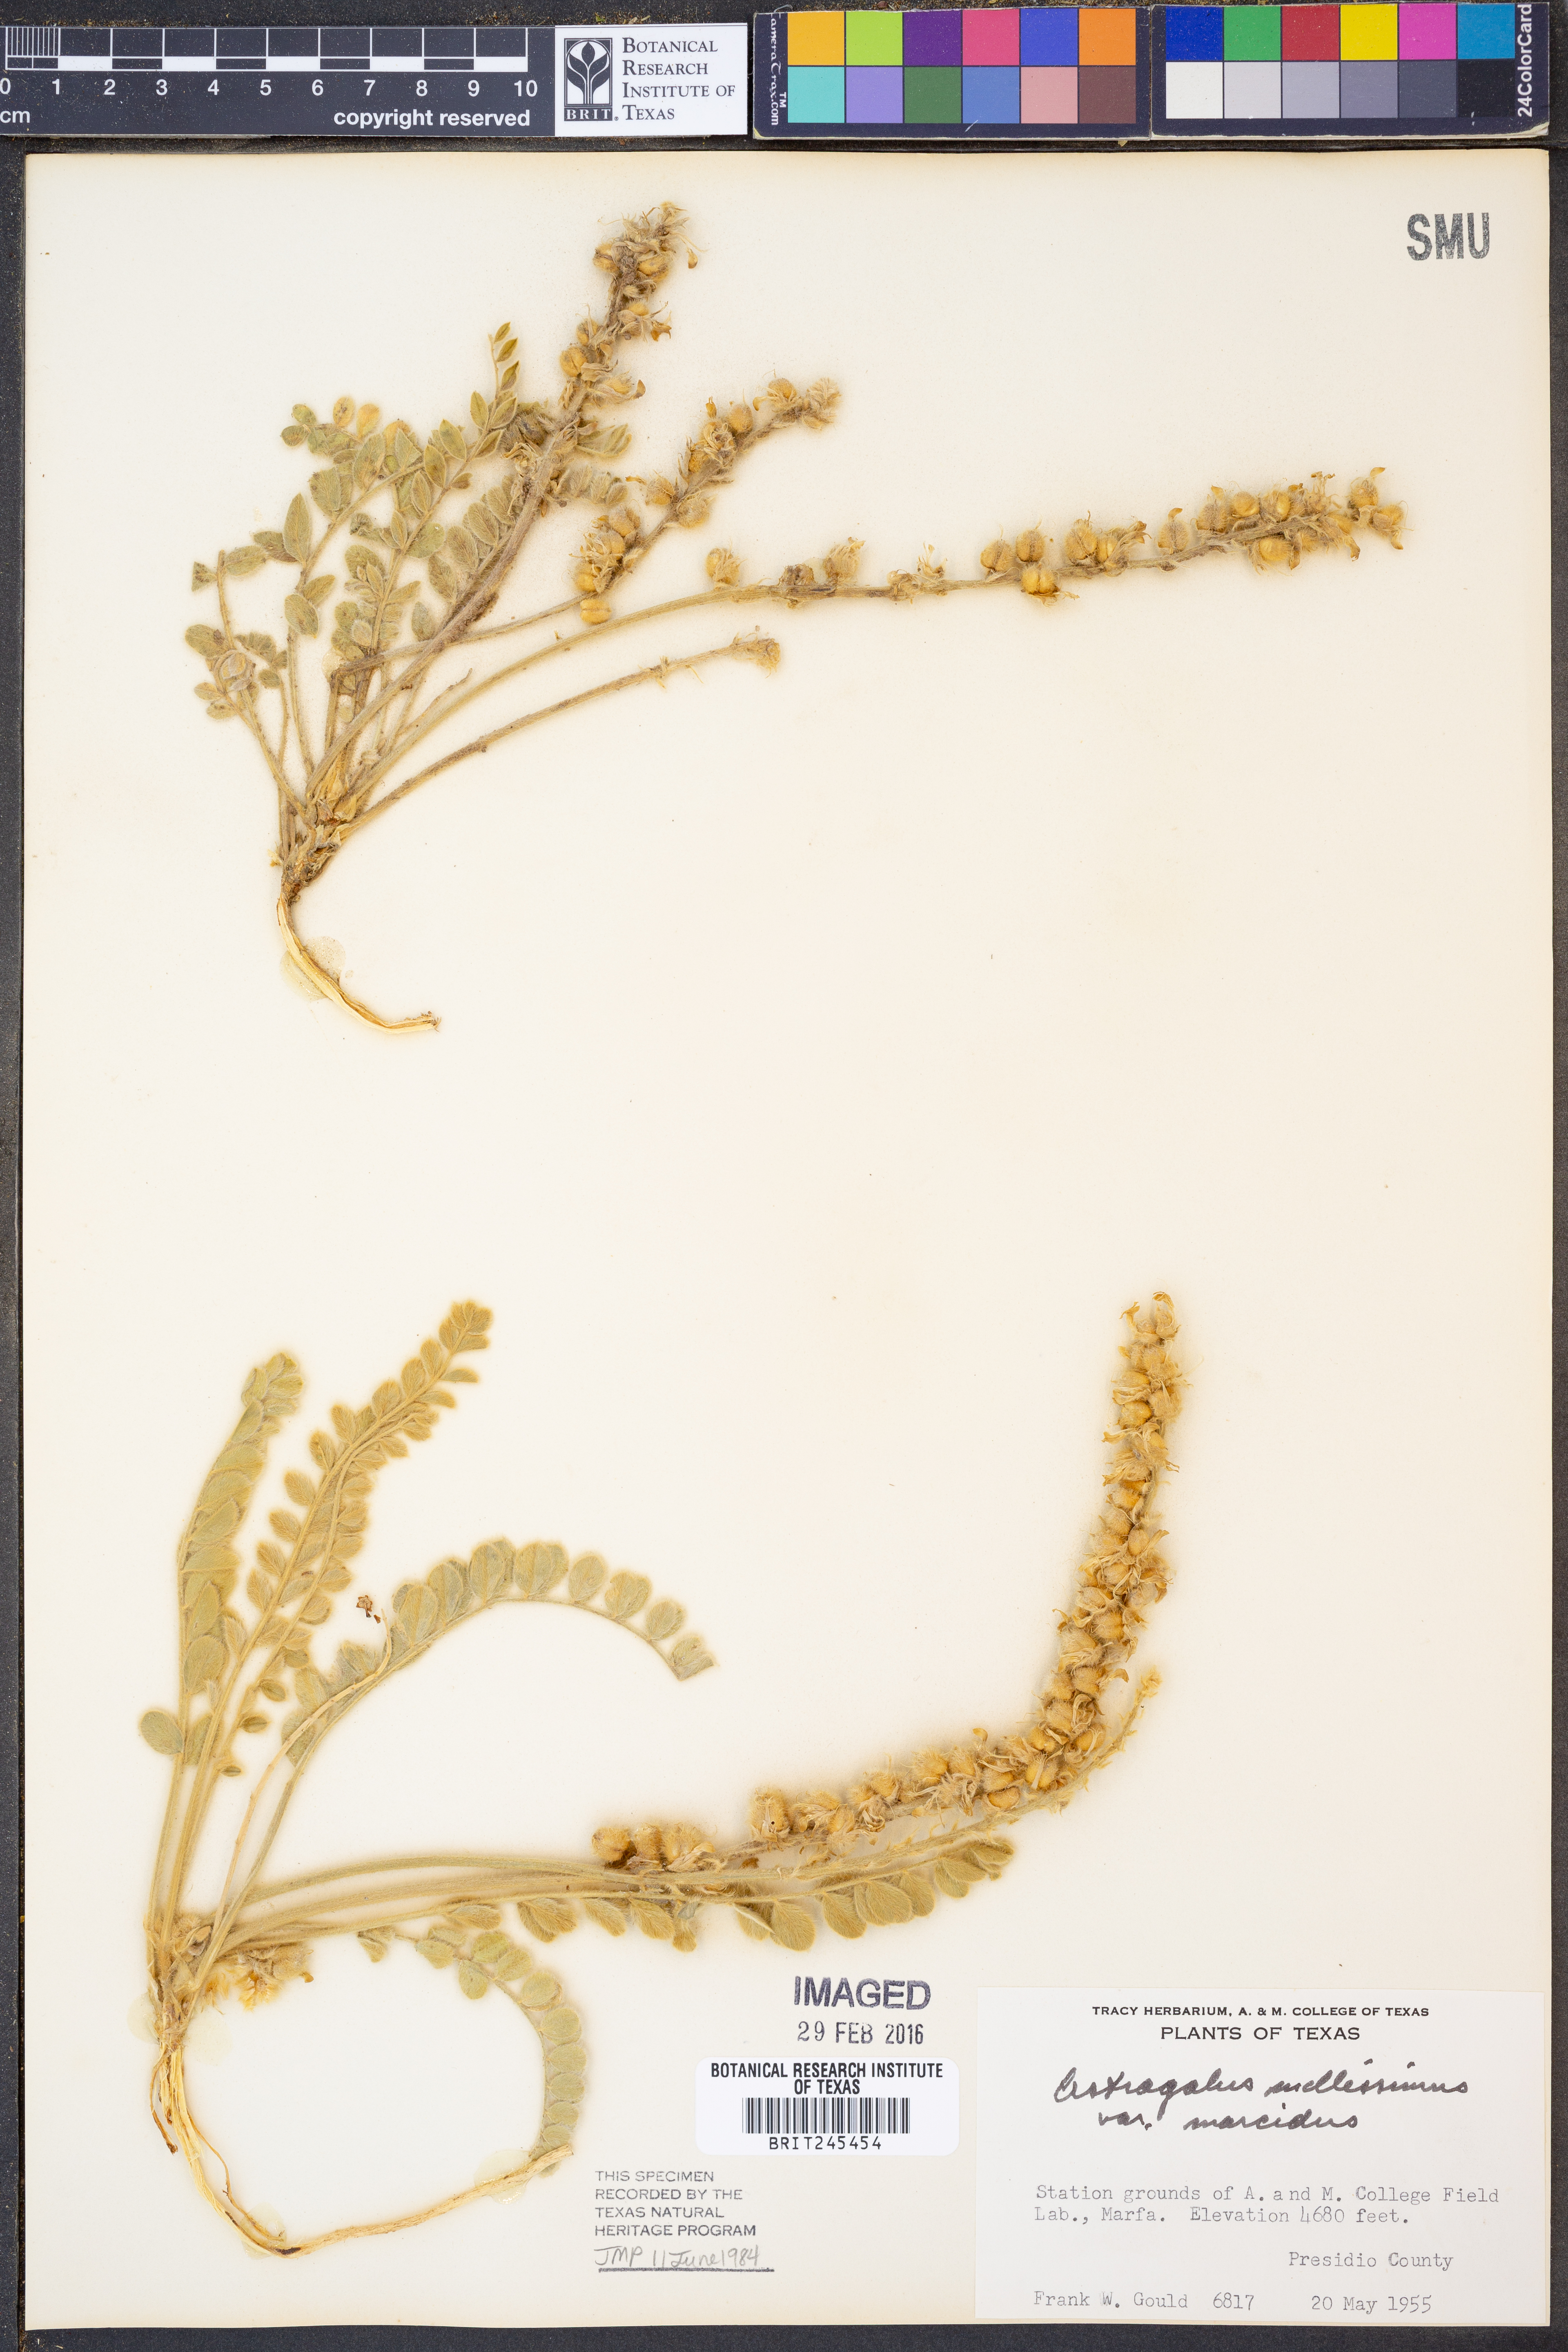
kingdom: Plantae
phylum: Tracheophyta
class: Magnoliopsida
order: Fabales
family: Fabaceae
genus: Astragalus
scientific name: Astragalus mollissimus
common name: Woolly locoweed
